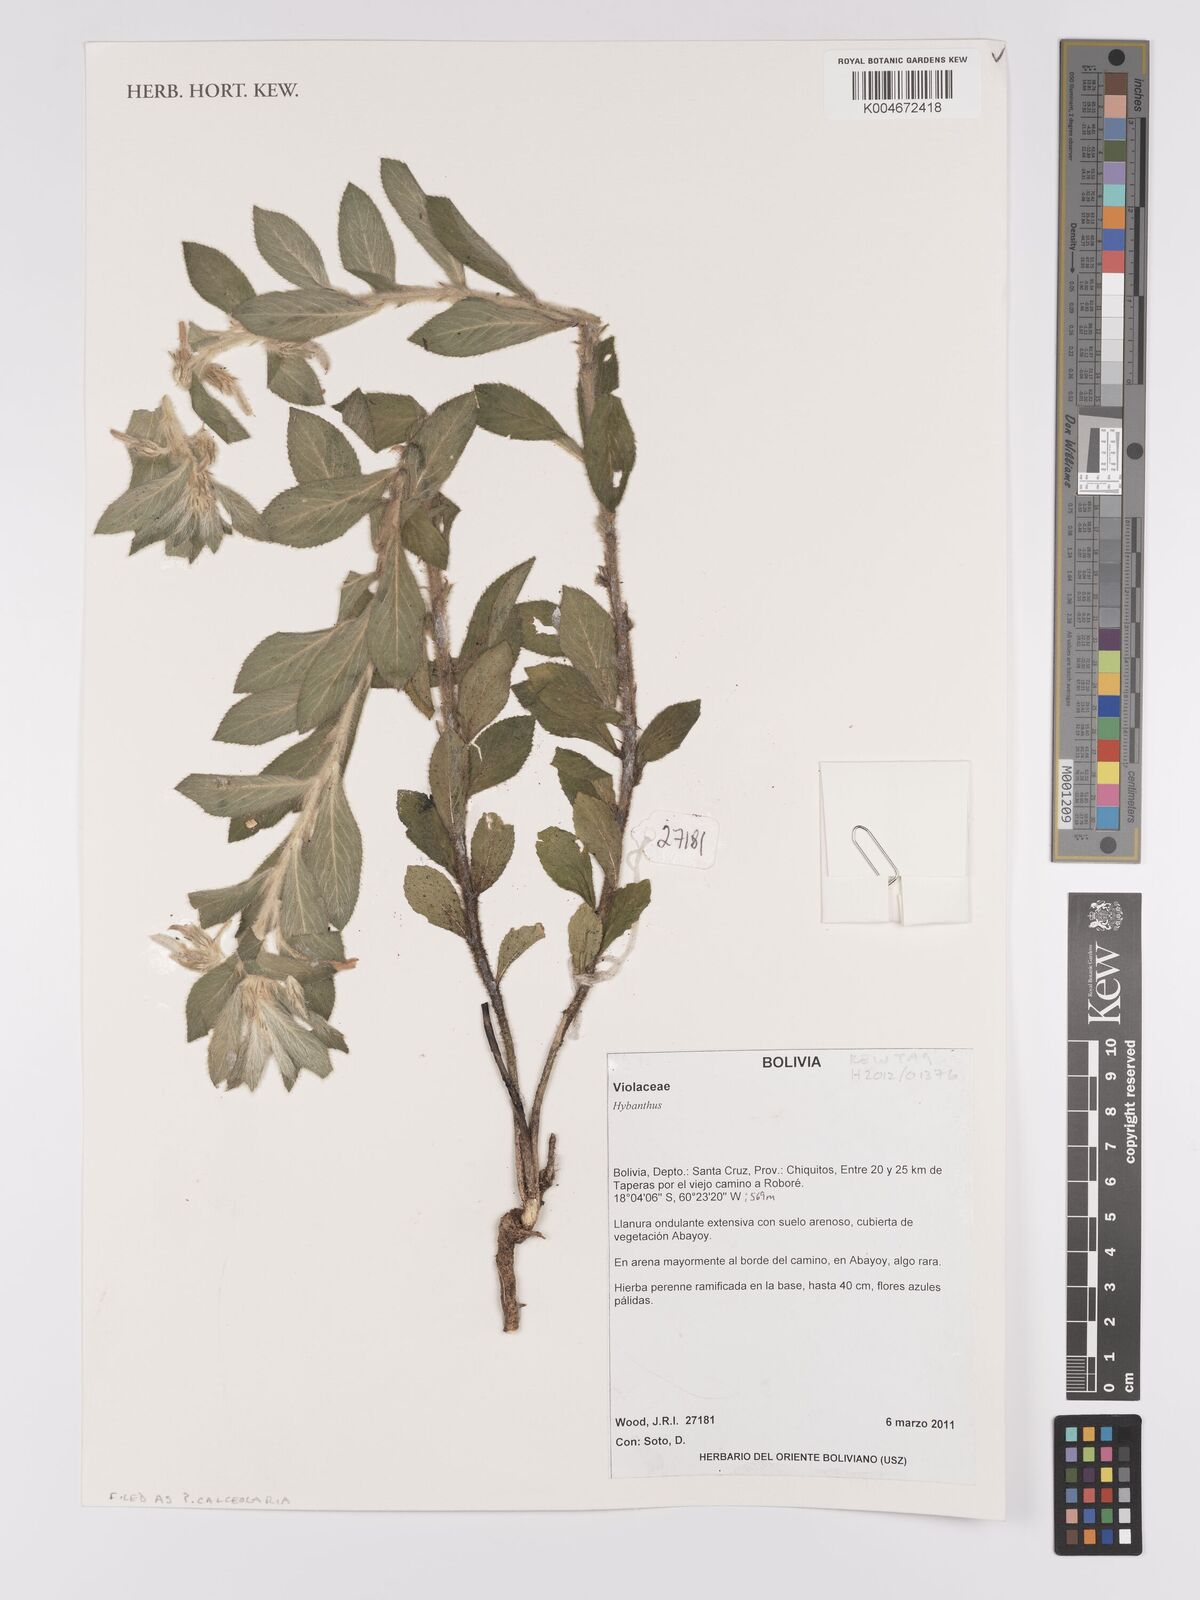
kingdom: Plantae
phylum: Tracheophyta
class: Magnoliopsida
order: Malpighiales
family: Violaceae
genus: Pombalia
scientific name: Pombalia calceolaria
